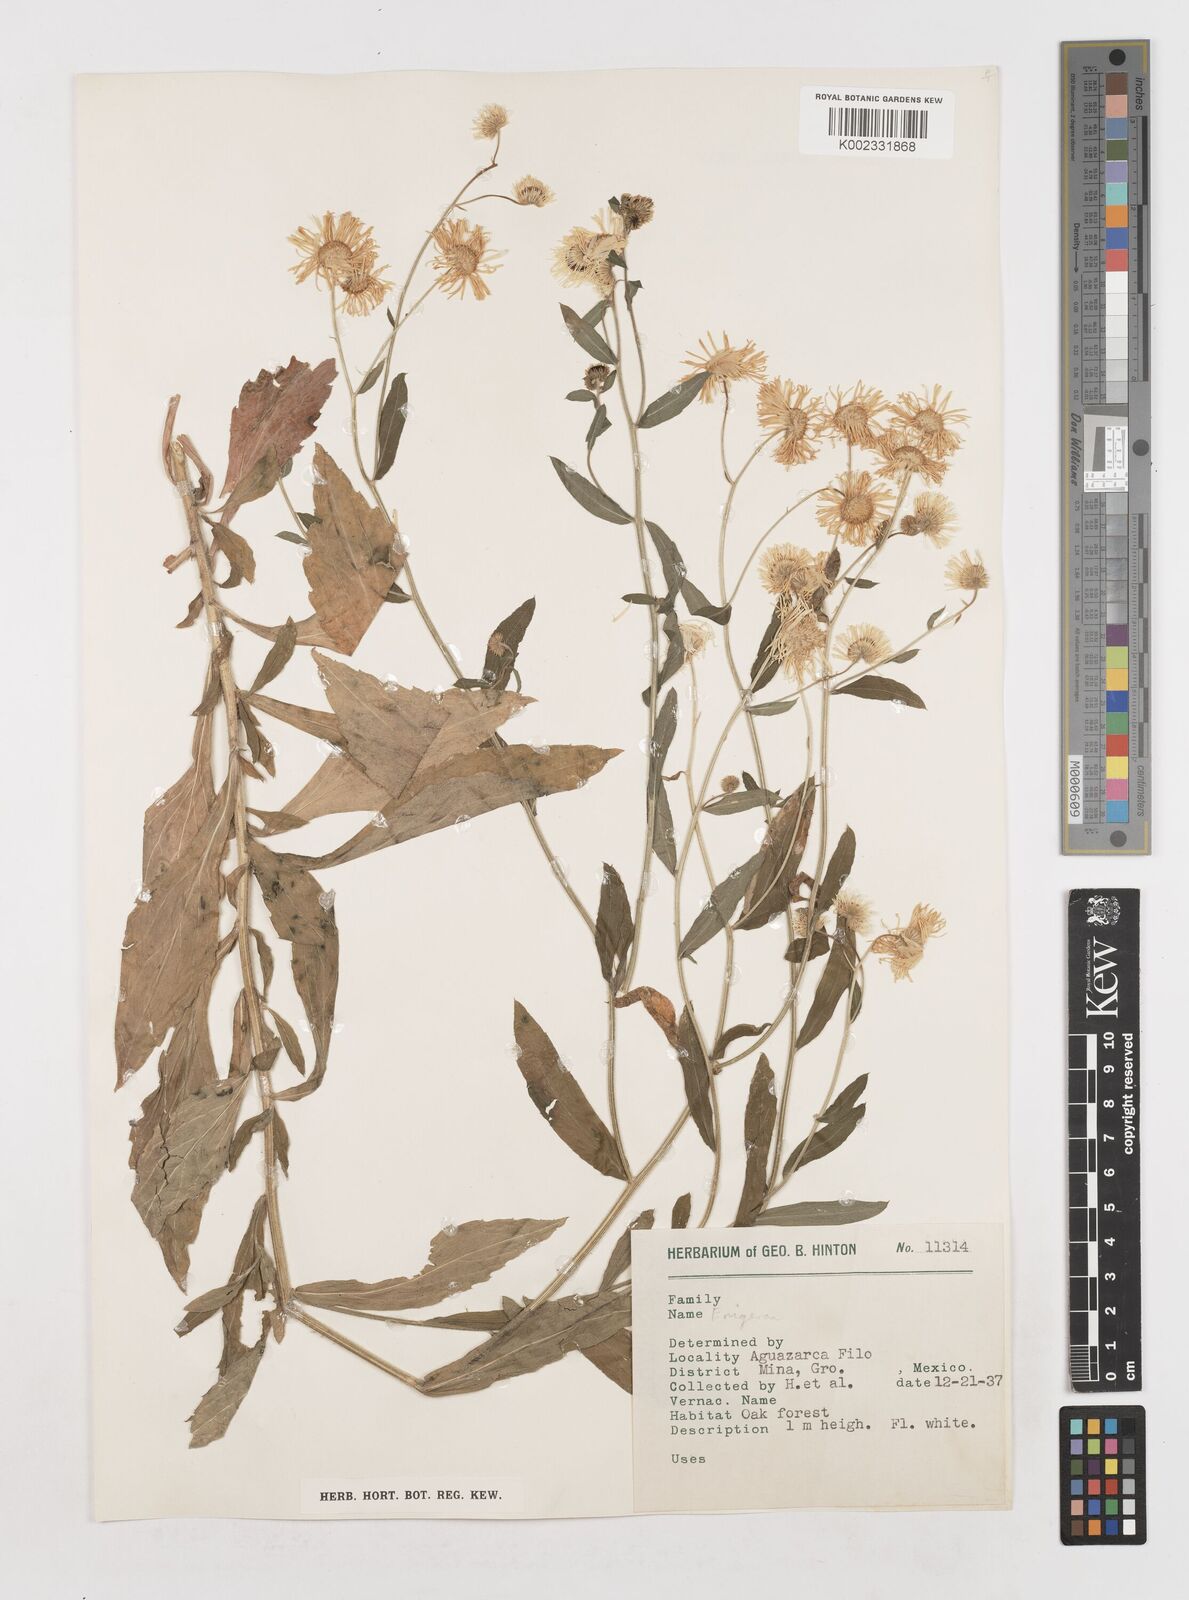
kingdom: Plantae
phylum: Tracheophyta
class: Magnoliopsida
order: Asterales
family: Asteraceae
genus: Erigeron
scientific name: Erigeron
